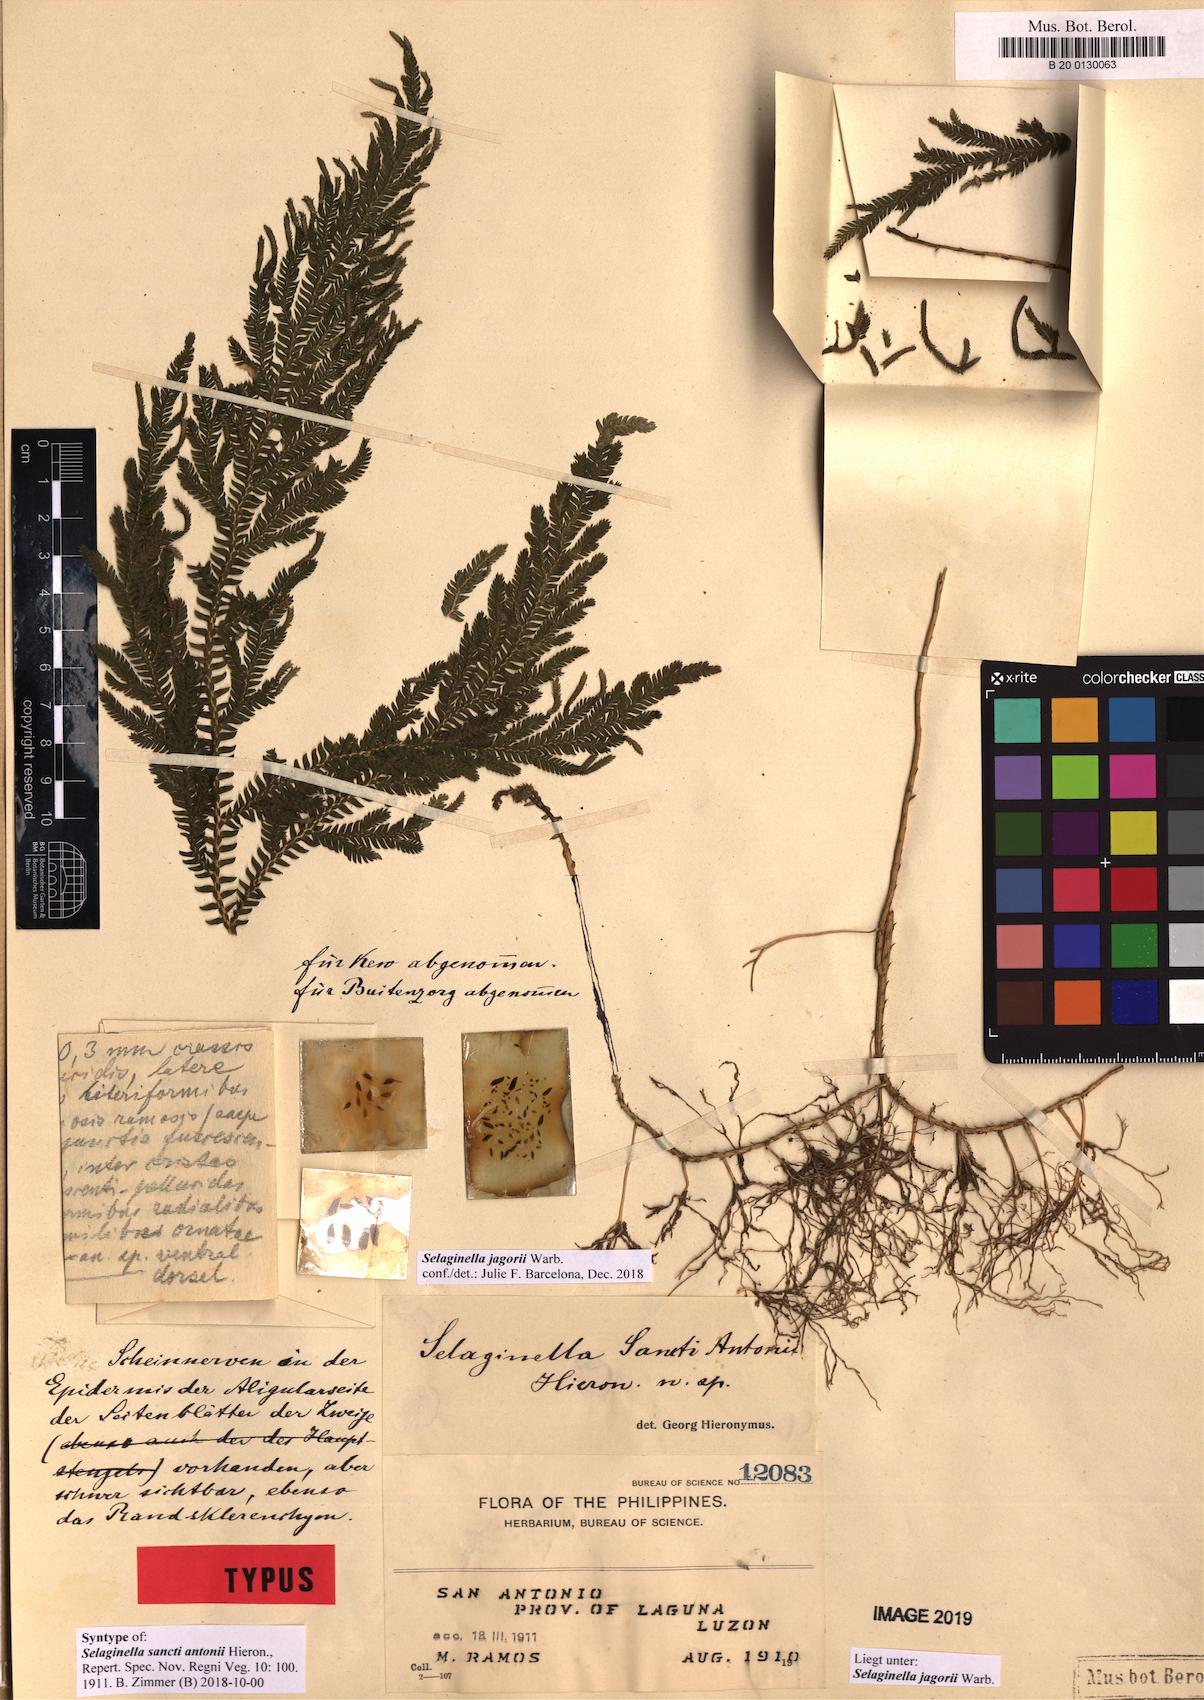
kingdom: Plantae
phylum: Tracheophyta
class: Lycopodiopsida
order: Selaginellales
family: Selaginellaceae
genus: Selaginella
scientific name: Selaginella jagorii
